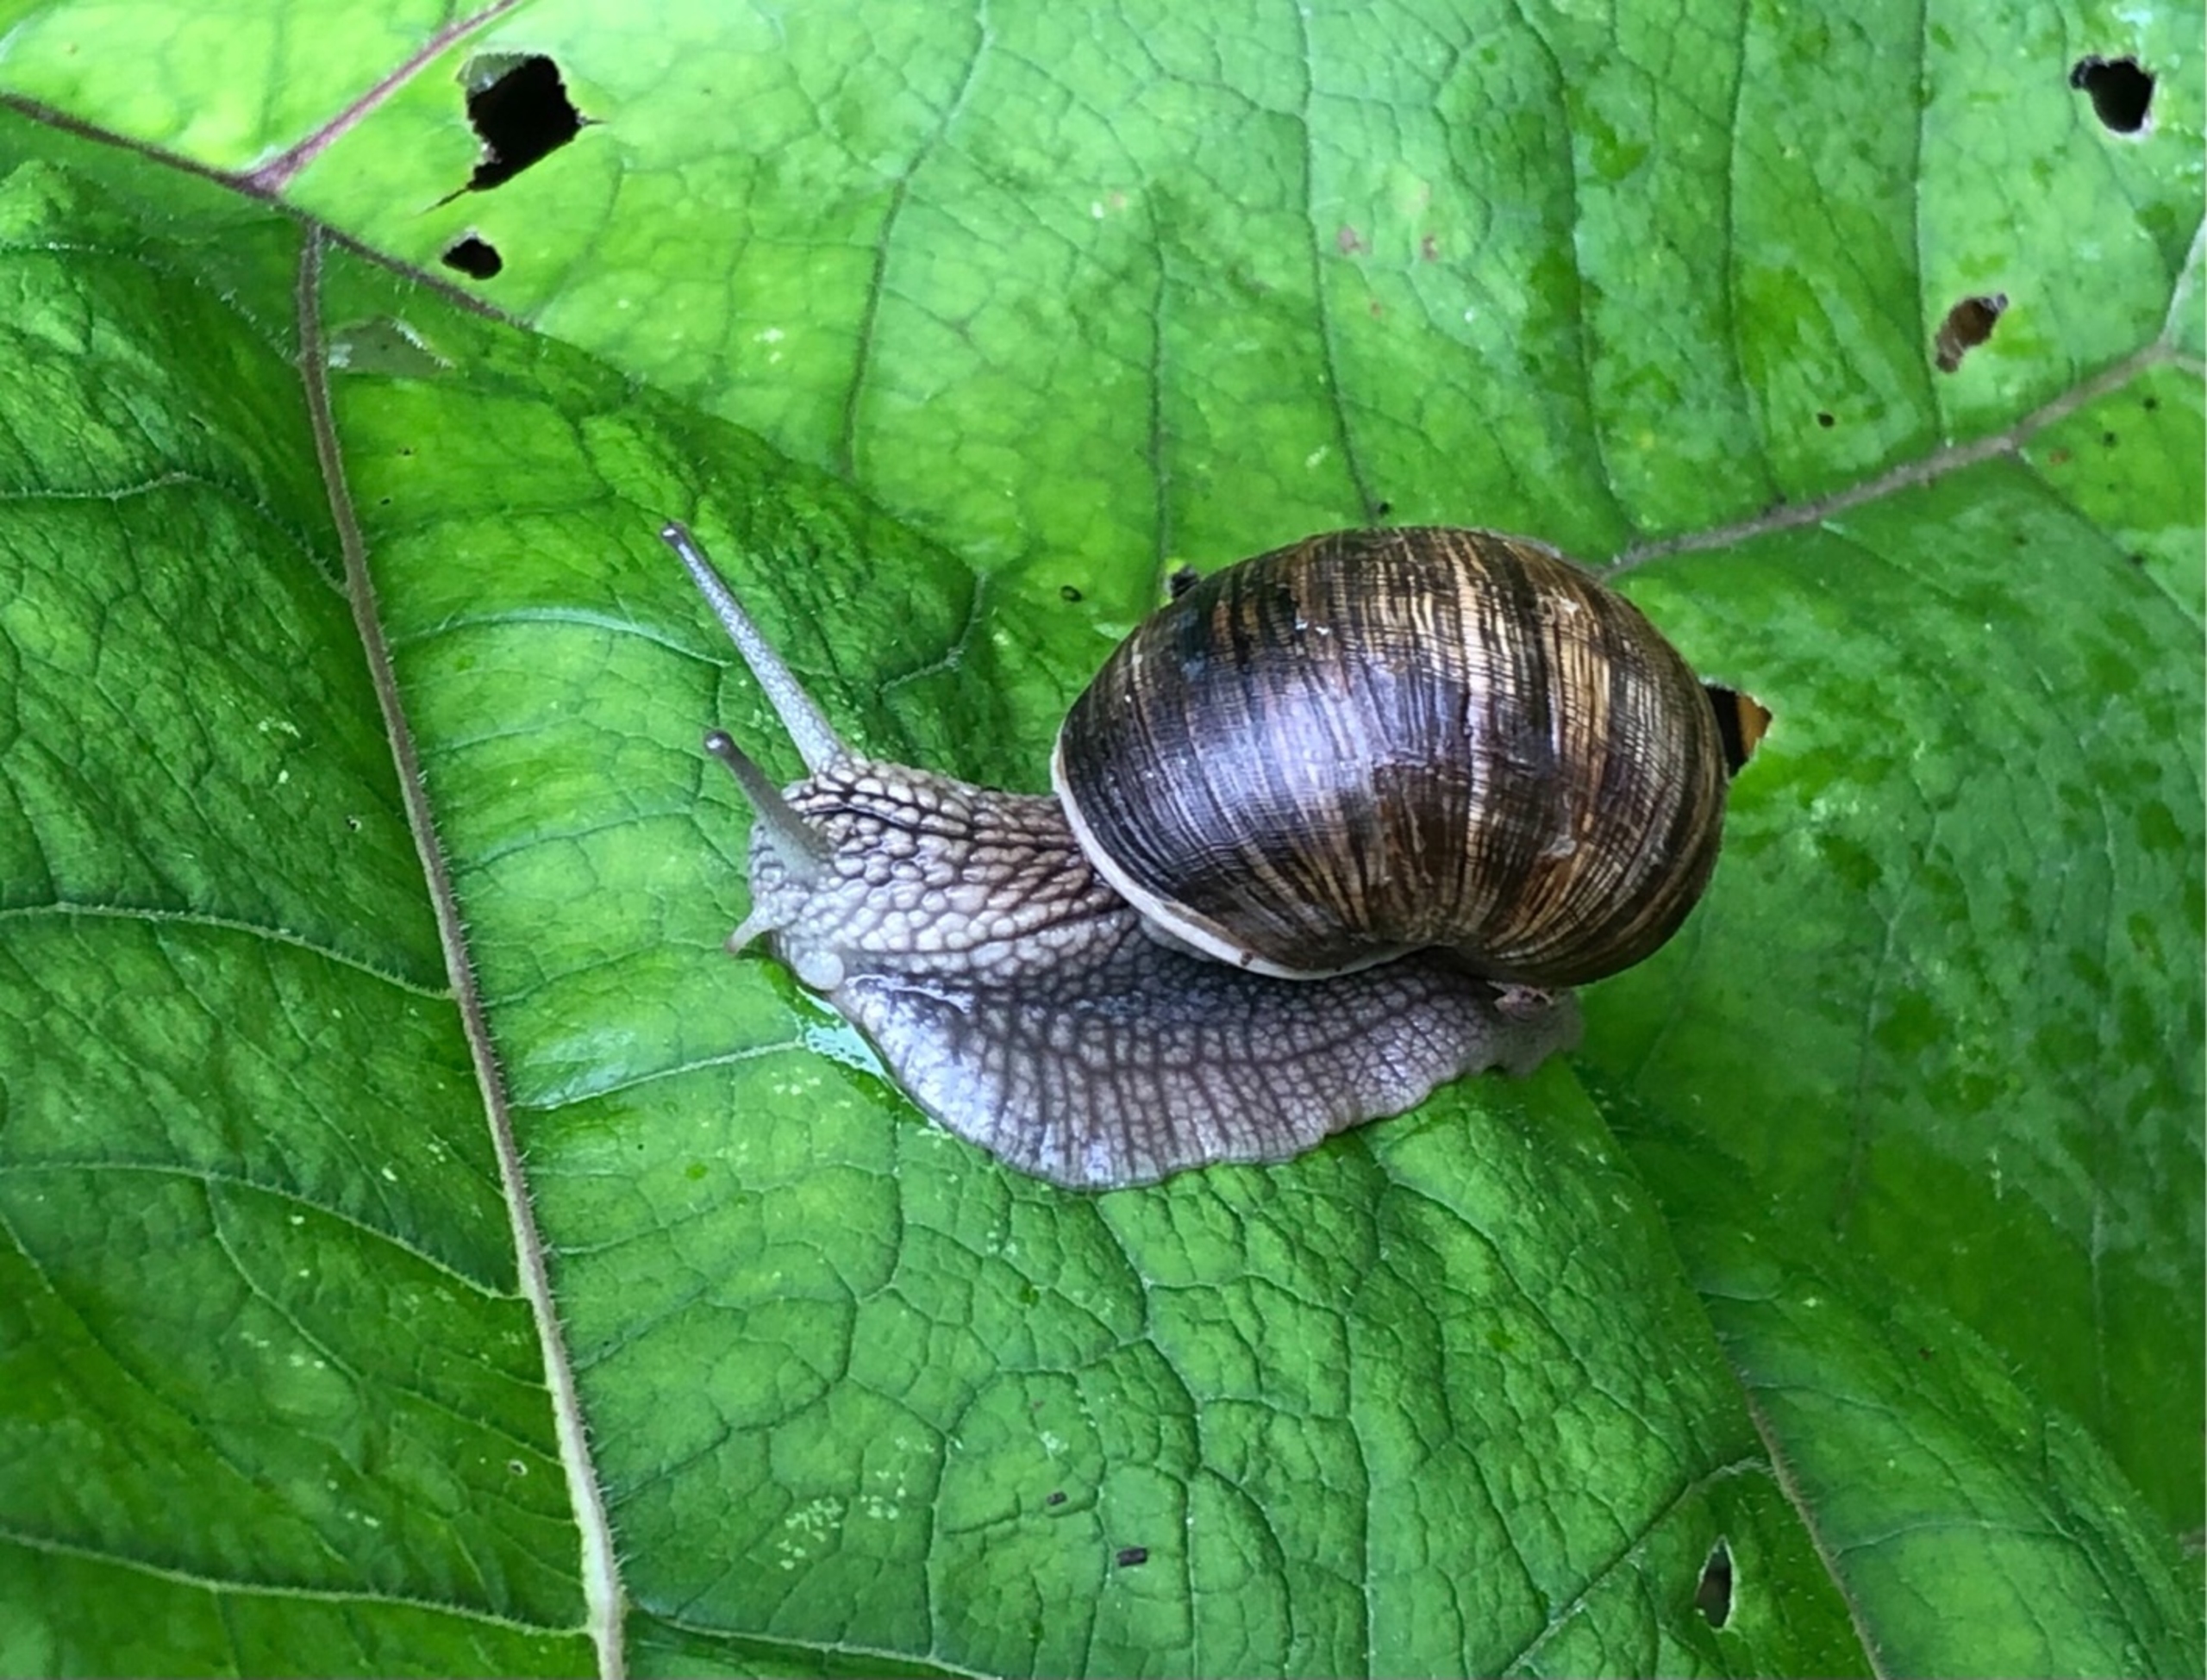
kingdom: Animalia
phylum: Mollusca
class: Gastropoda
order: Stylommatophora
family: Helicidae
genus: Helix
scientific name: Helix pomatia
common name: Vinbjergsnegl
